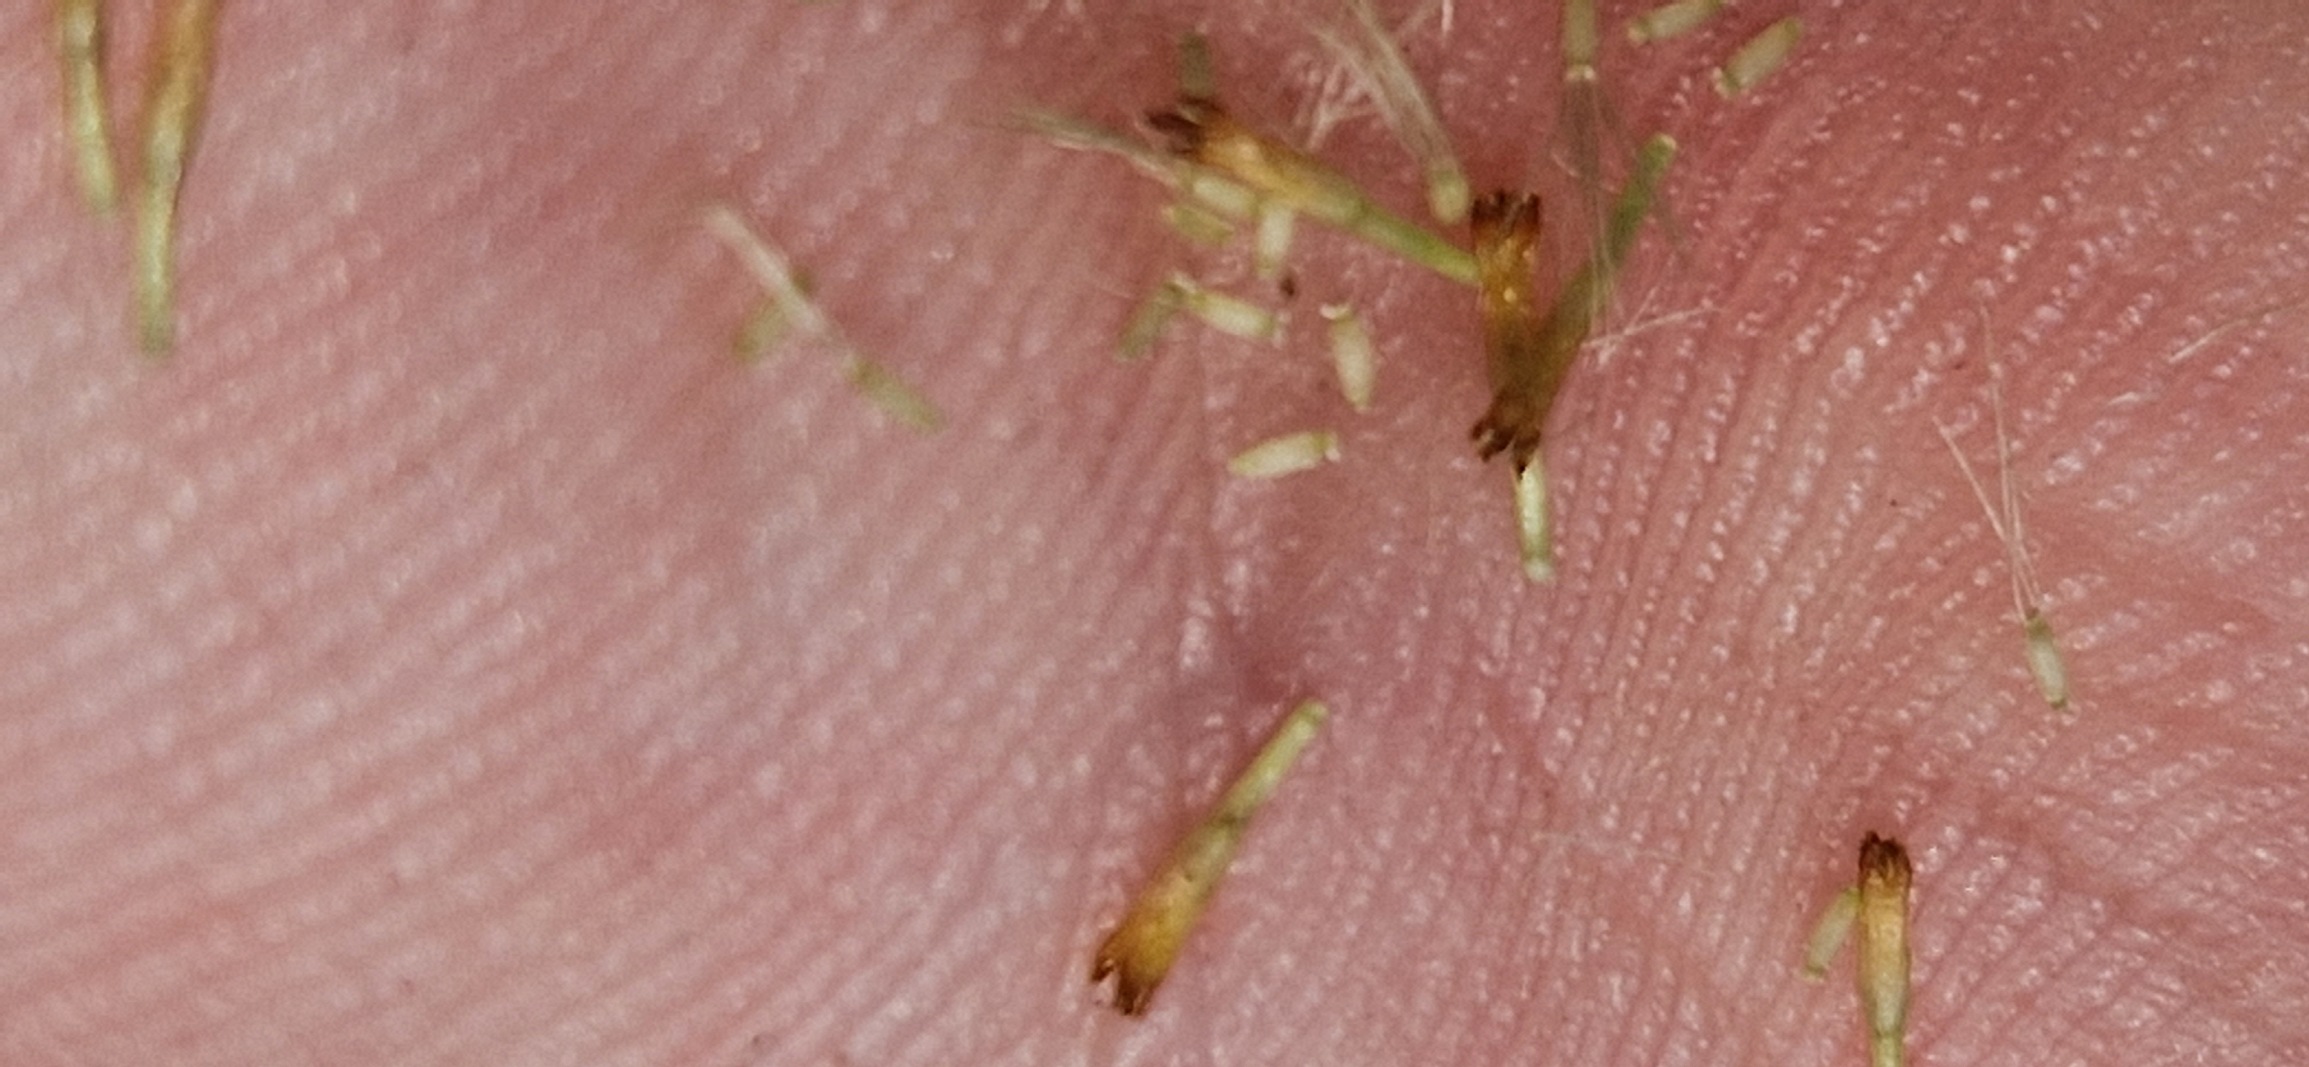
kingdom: Plantae
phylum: Tracheophyta
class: Magnoliopsida
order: Asterales
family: Asteraceae
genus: Pulicaria
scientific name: Pulicaria dysenterica
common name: Strand-loppeurt
